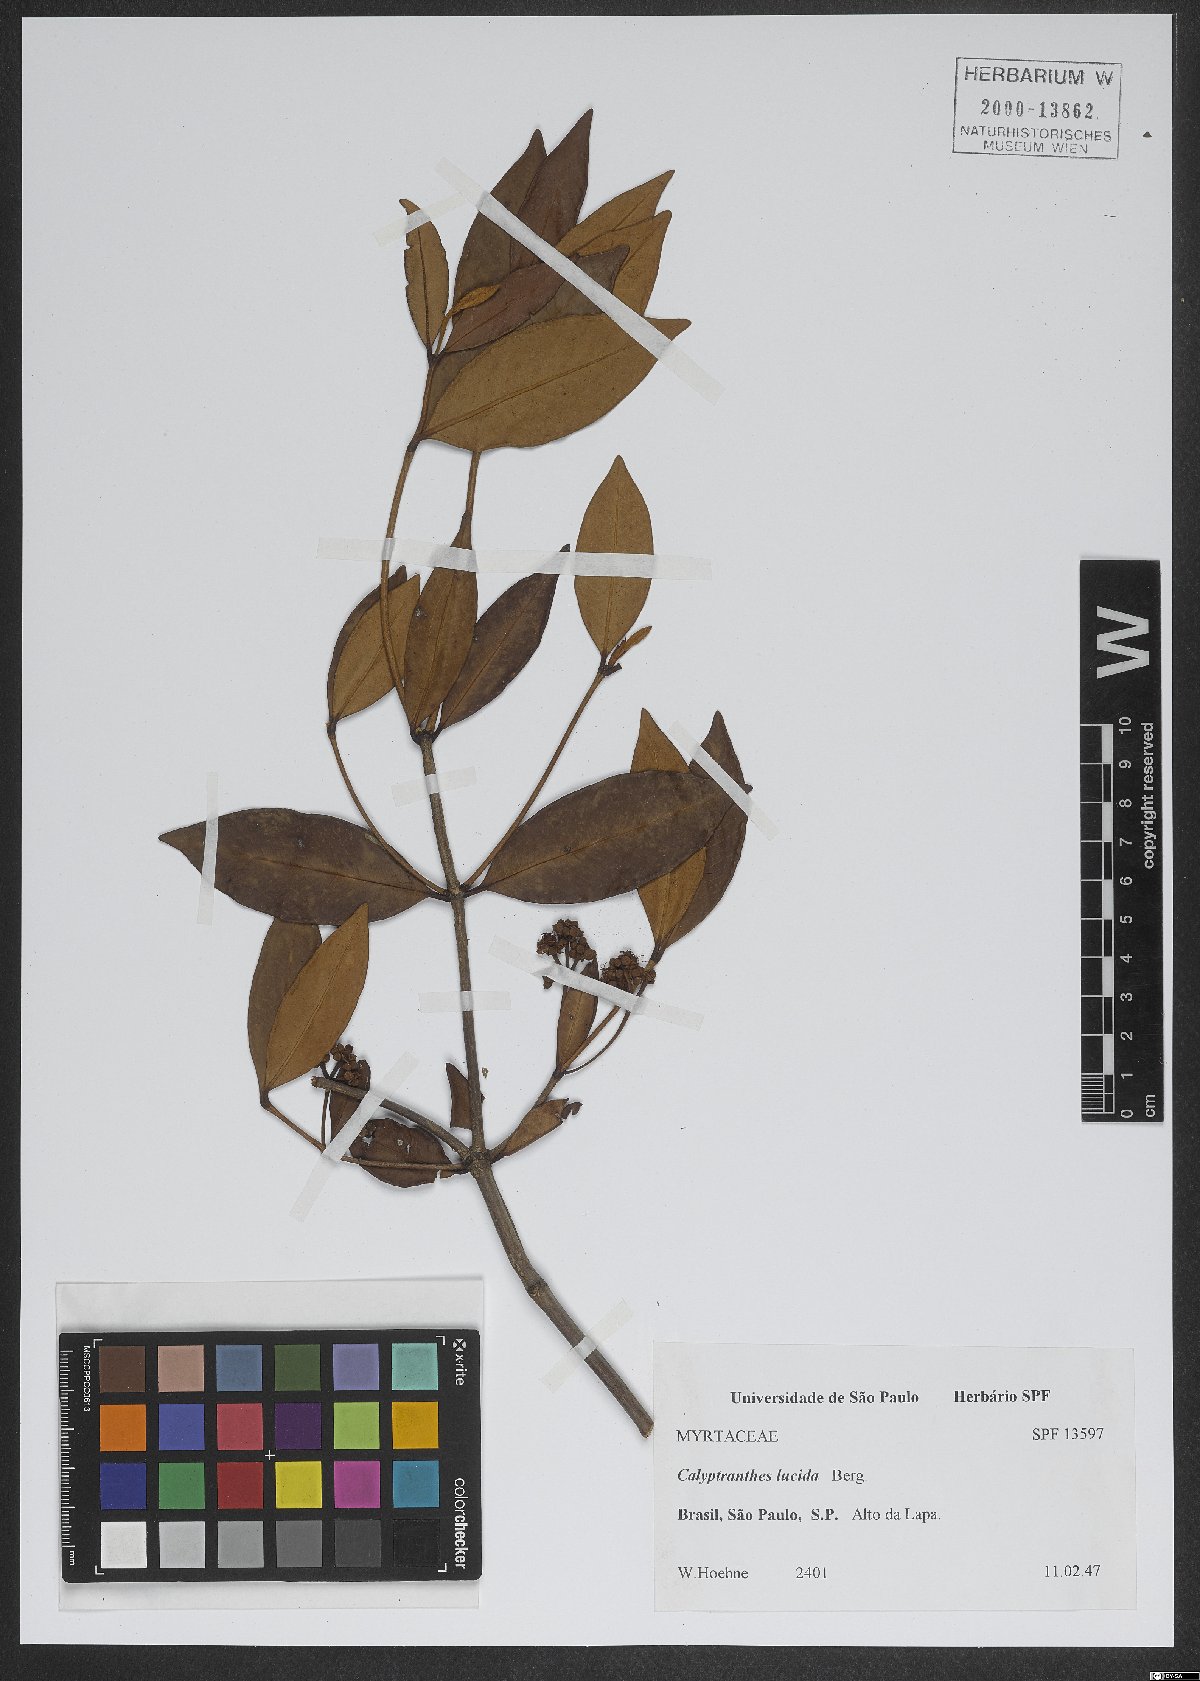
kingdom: Plantae
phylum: Tracheophyta
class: Magnoliopsida
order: Myrtales
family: Myrtaceae
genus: Myrcia
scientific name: Myrcia neolucida
